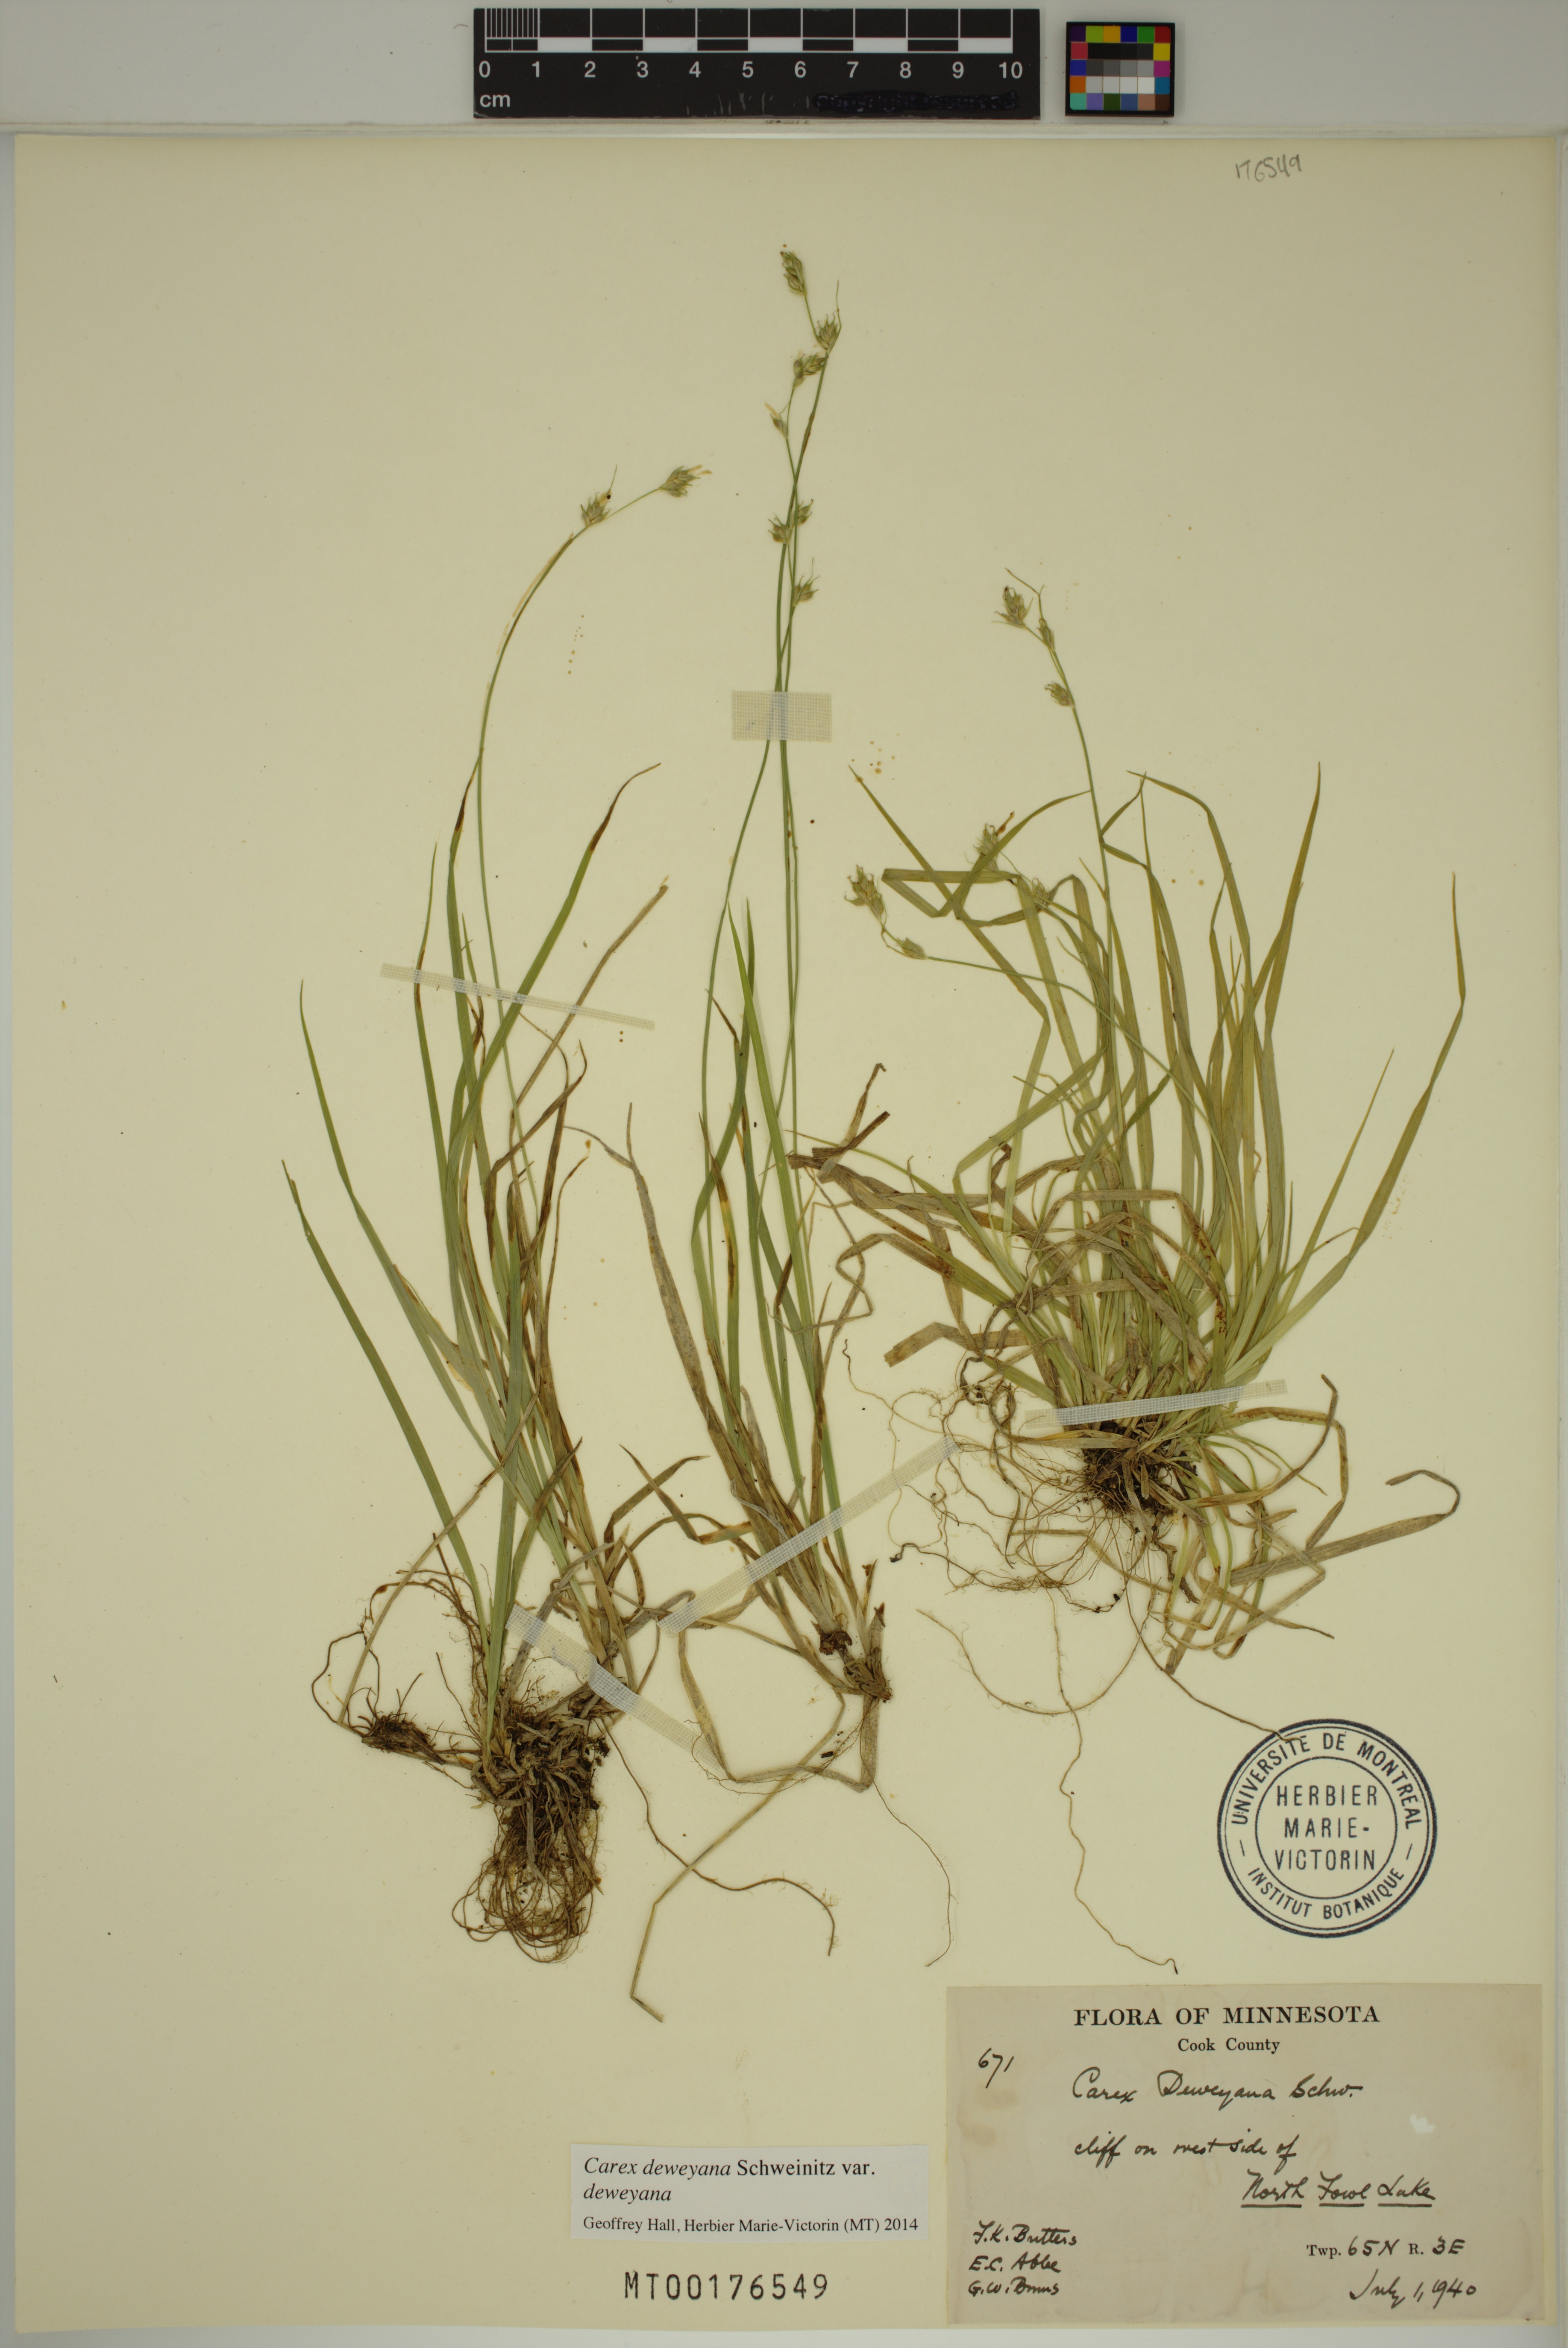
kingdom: Plantae
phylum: Tracheophyta
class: Liliopsida
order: Poales
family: Cyperaceae
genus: Carex
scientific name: Carex deweyana
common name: Dewey's sedge
